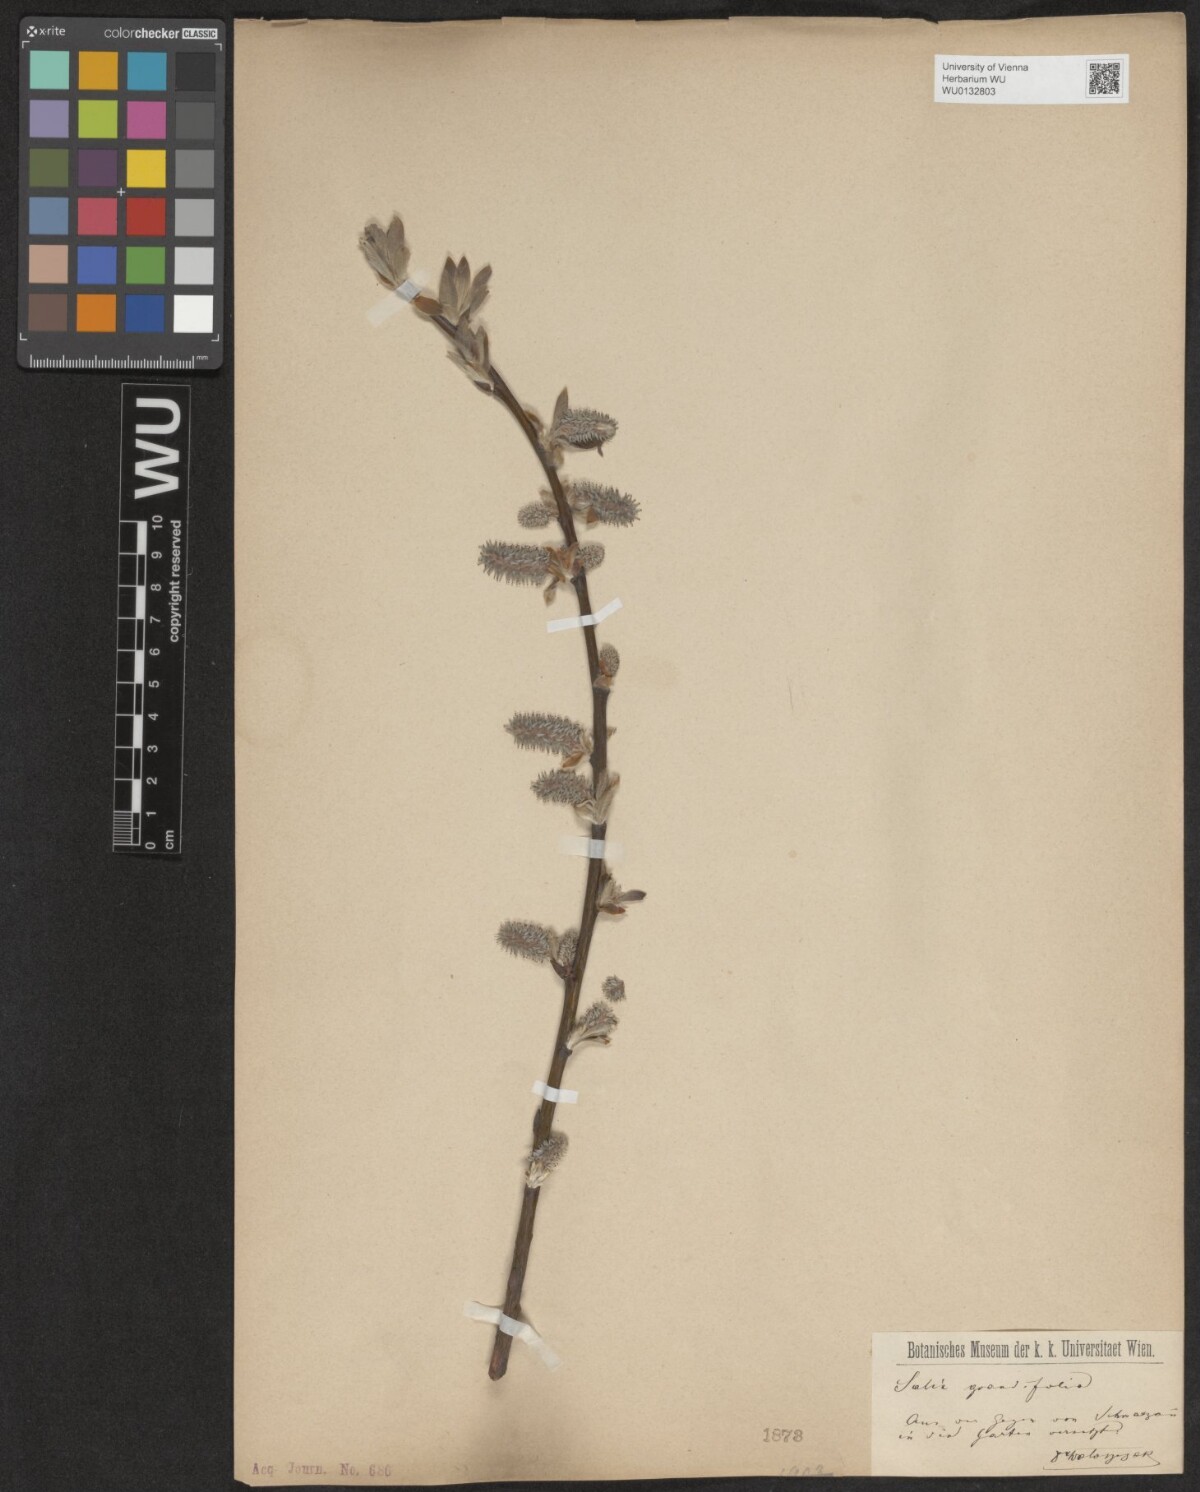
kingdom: Plantae
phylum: Tracheophyta
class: Magnoliopsida
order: Malpighiales
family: Salicaceae
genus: Salix
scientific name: Salix appendiculata
